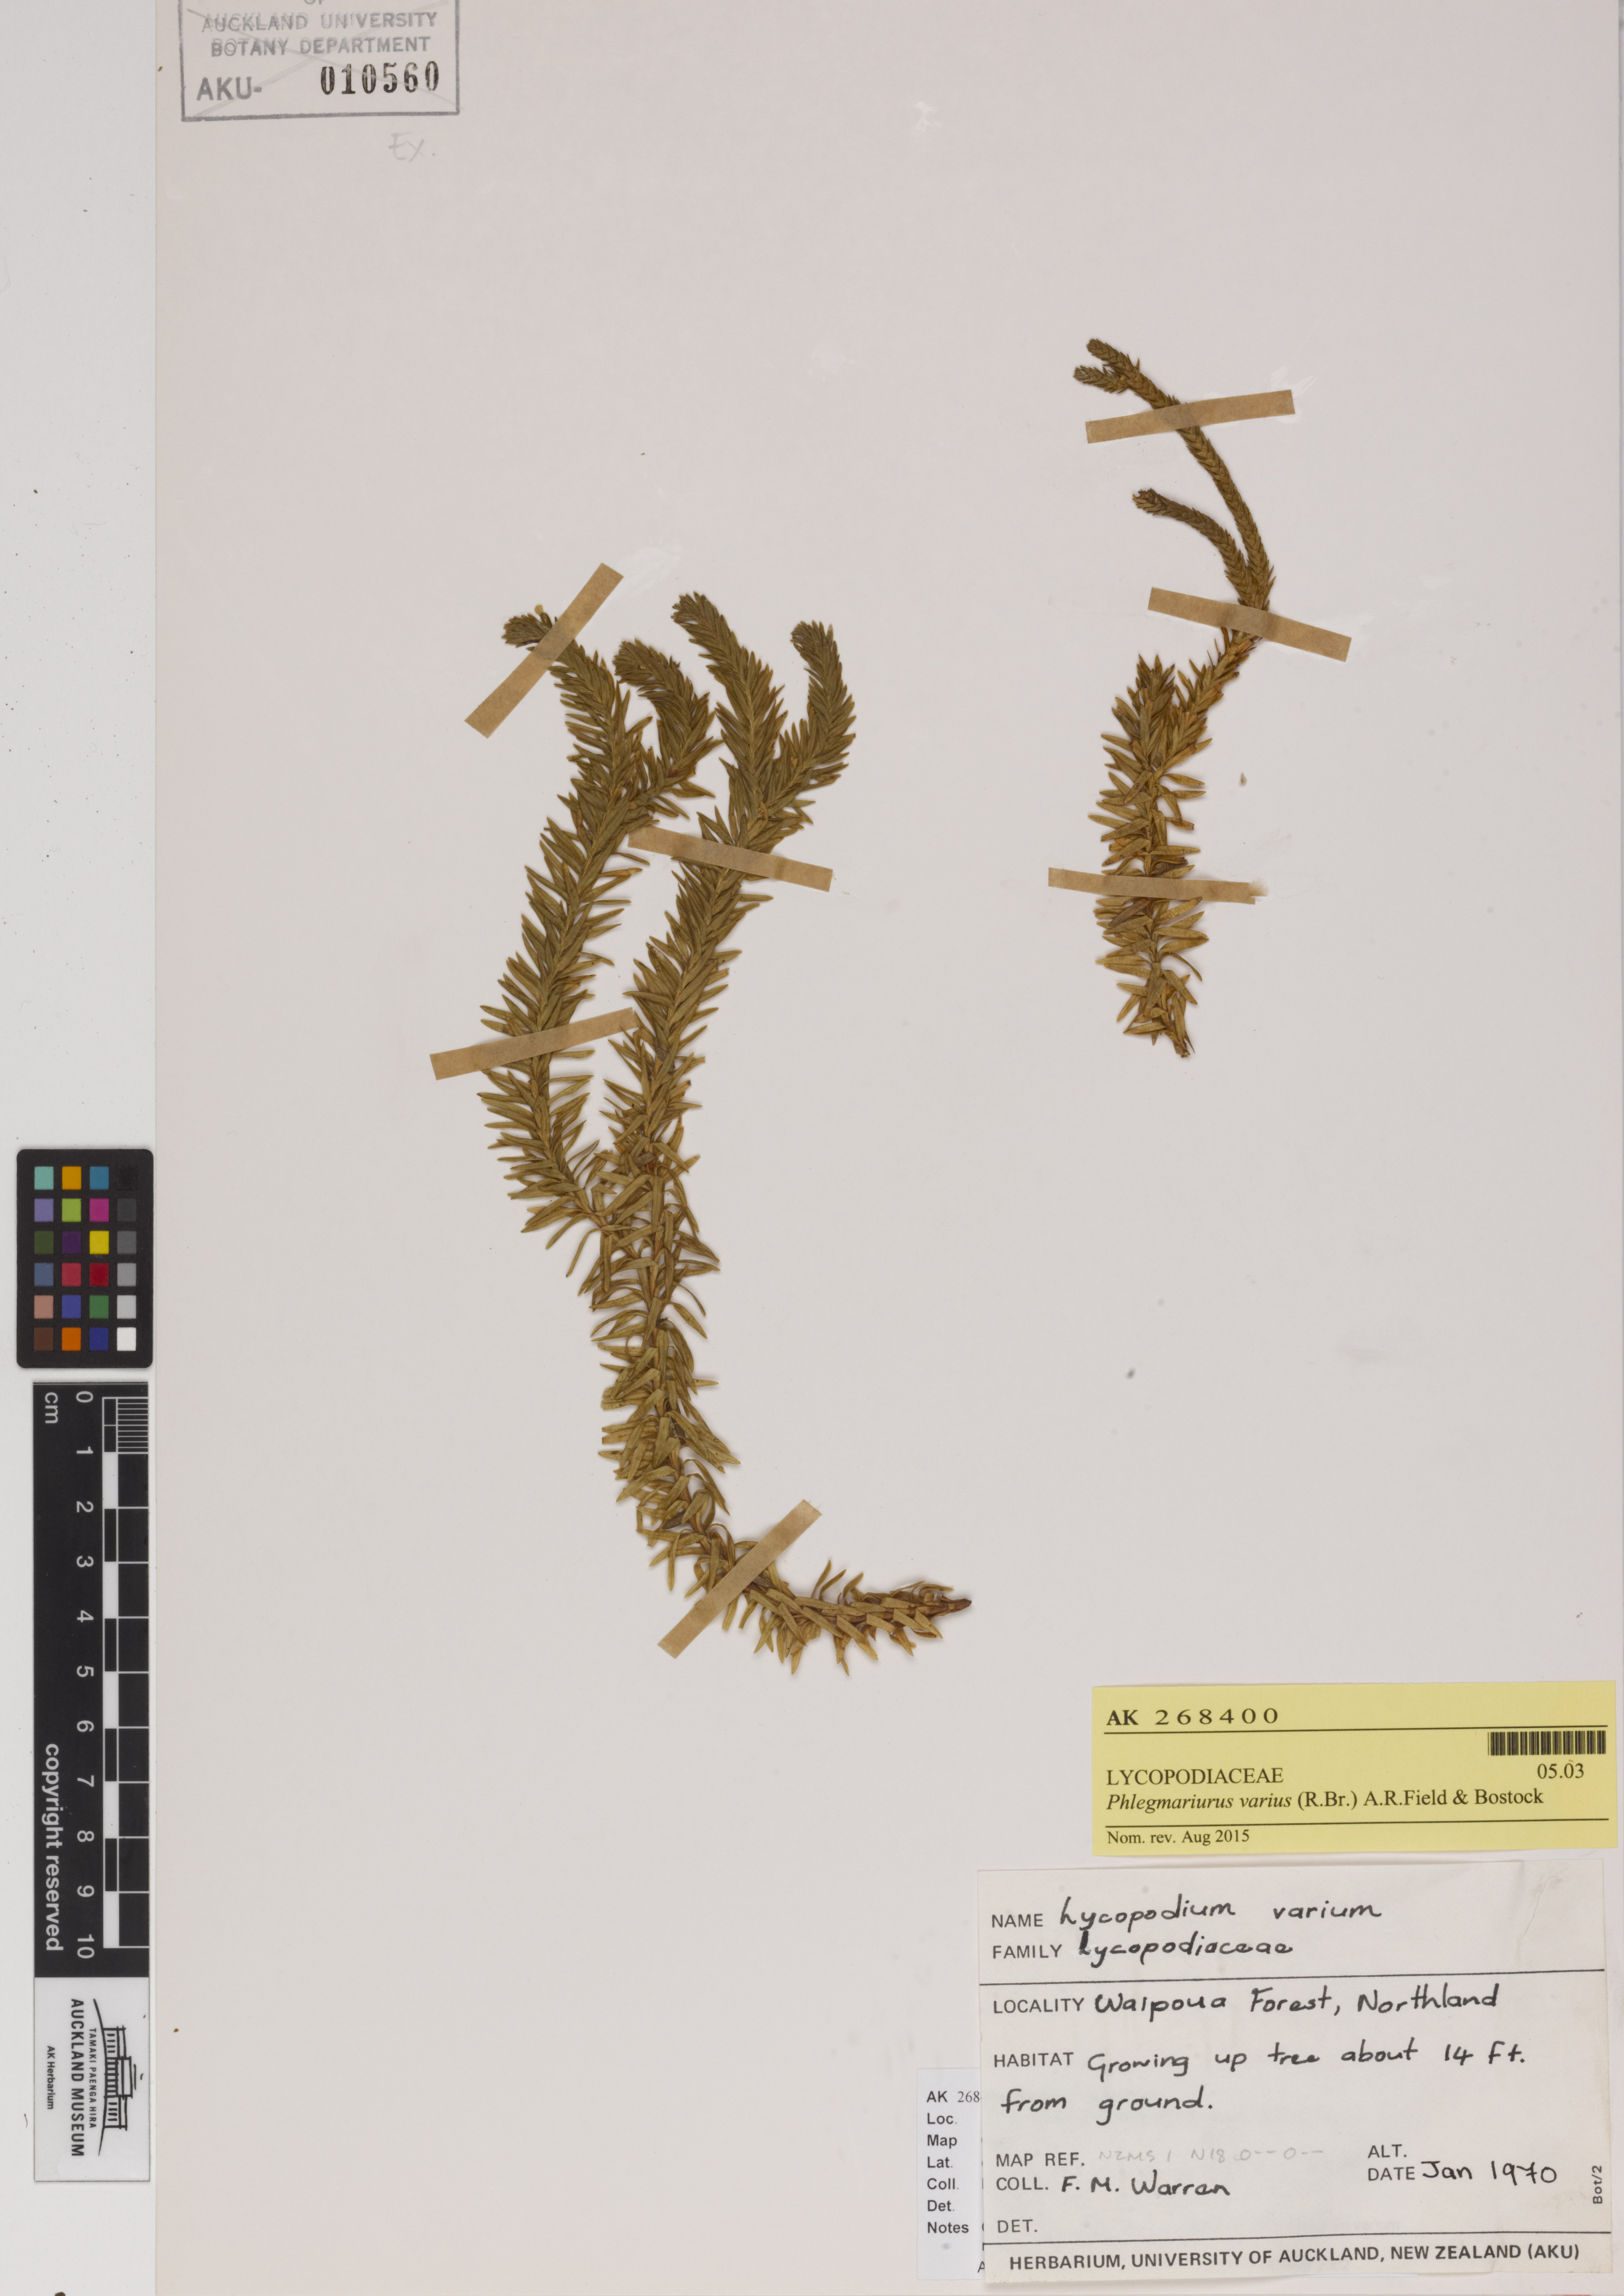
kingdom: Plantae
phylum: Tracheophyta
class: Lycopodiopsida
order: Lycopodiales
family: Lycopodiaceae
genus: Phlegmariurus
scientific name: Phlegmariurus varius
